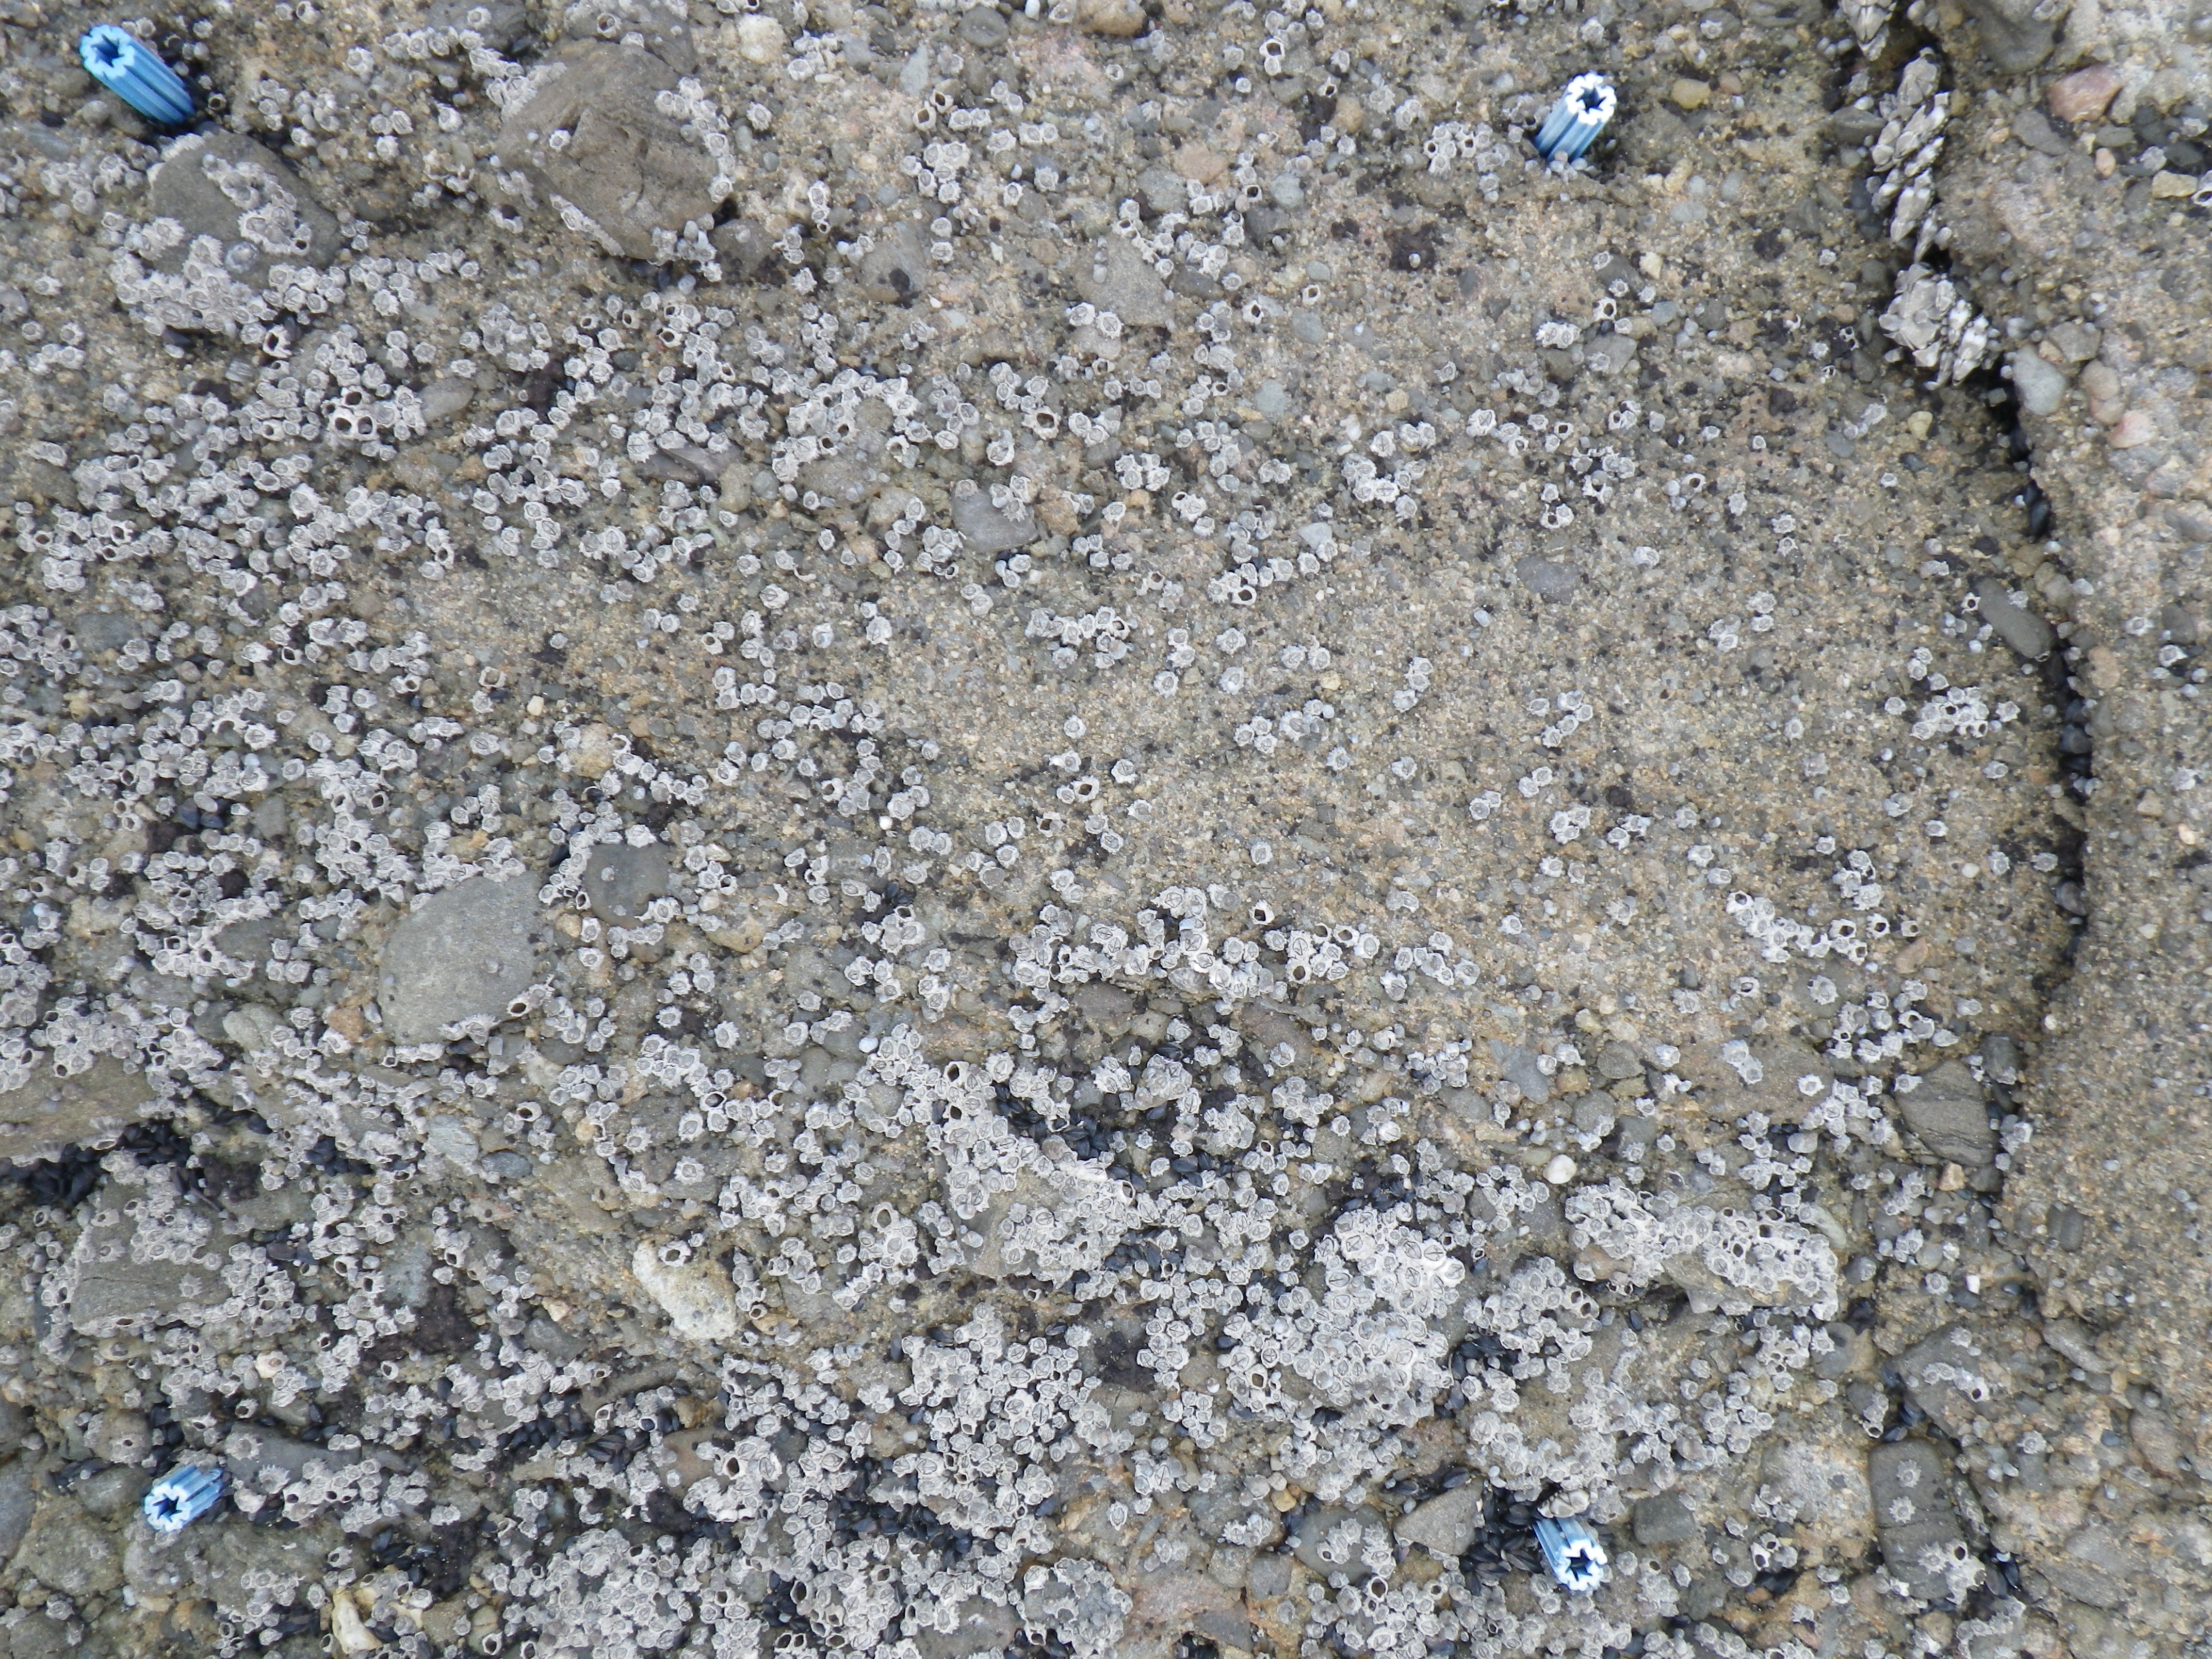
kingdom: Animalia
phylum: Arthropoda
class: Maxillopoda
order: Sessilia
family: Chthamalidae
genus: Chthamalus
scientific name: Chthamalus challengeri
